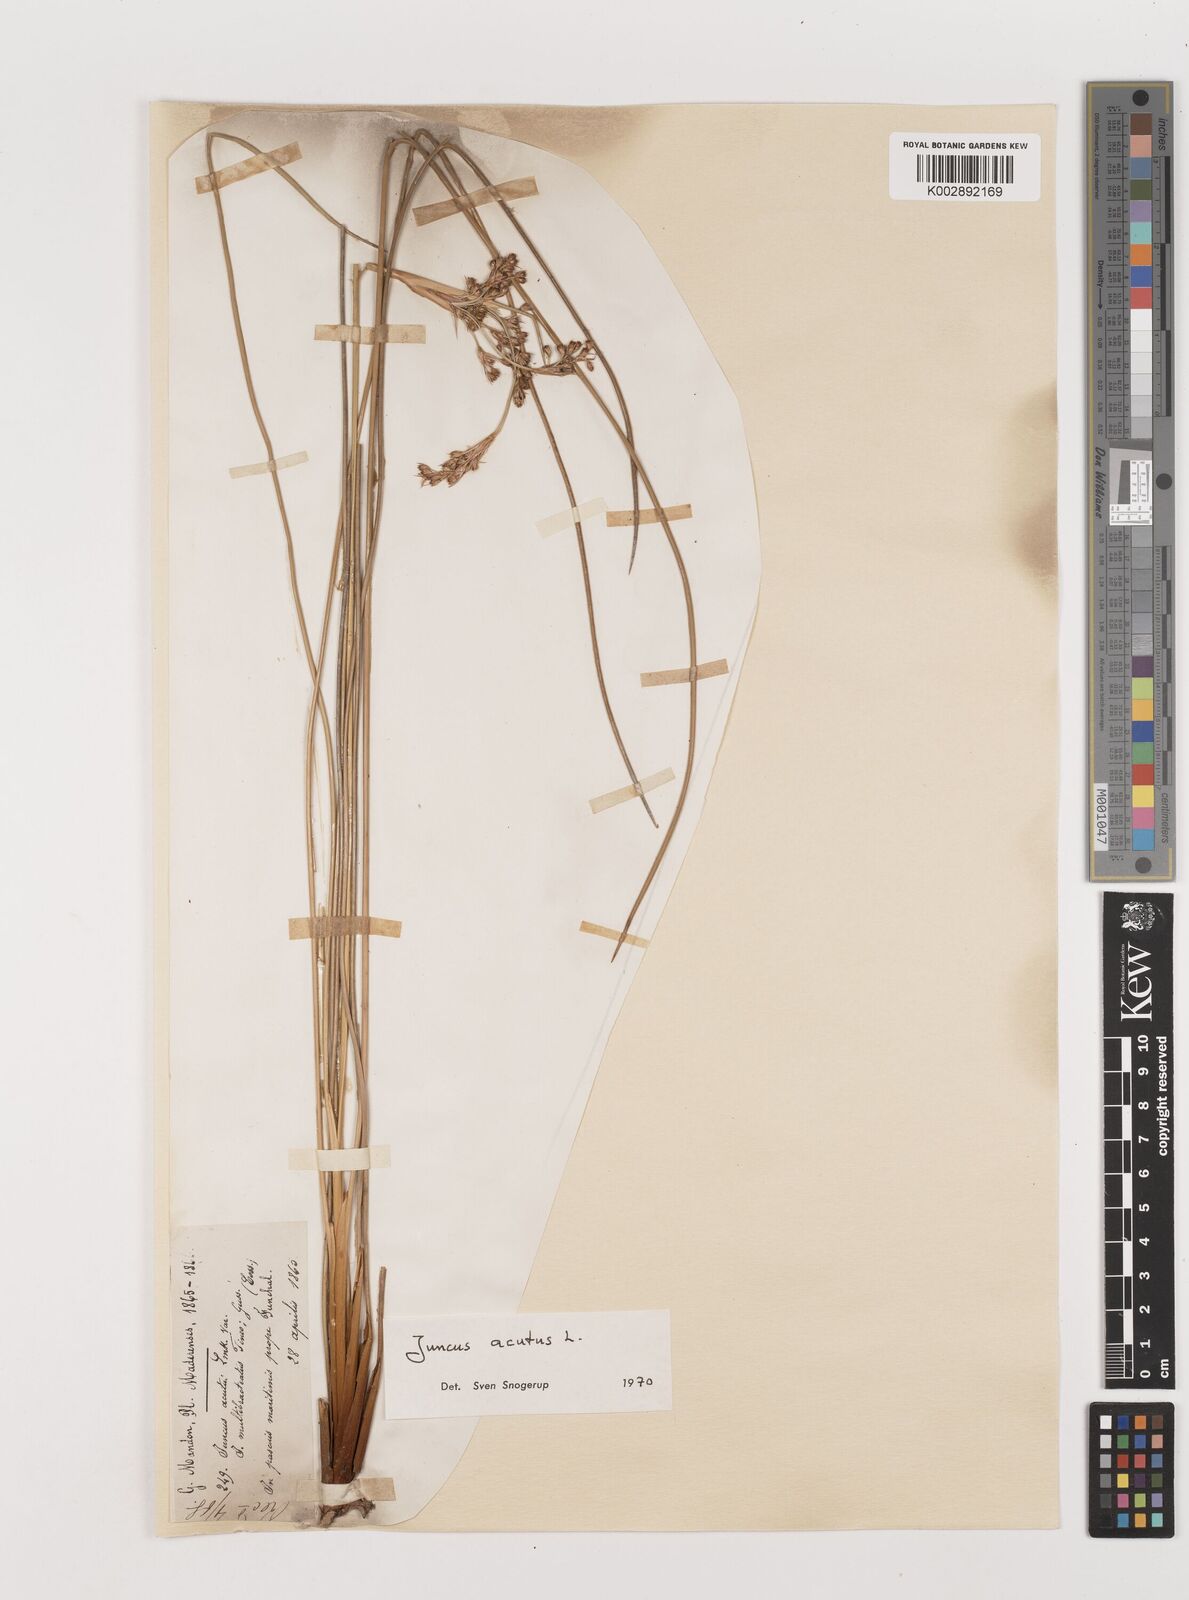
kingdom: Plantae
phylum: Tracheophyta
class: Liliopsida
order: Poales
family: Juncaceae
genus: Juncus
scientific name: Juncus acutus
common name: Sharp rush
